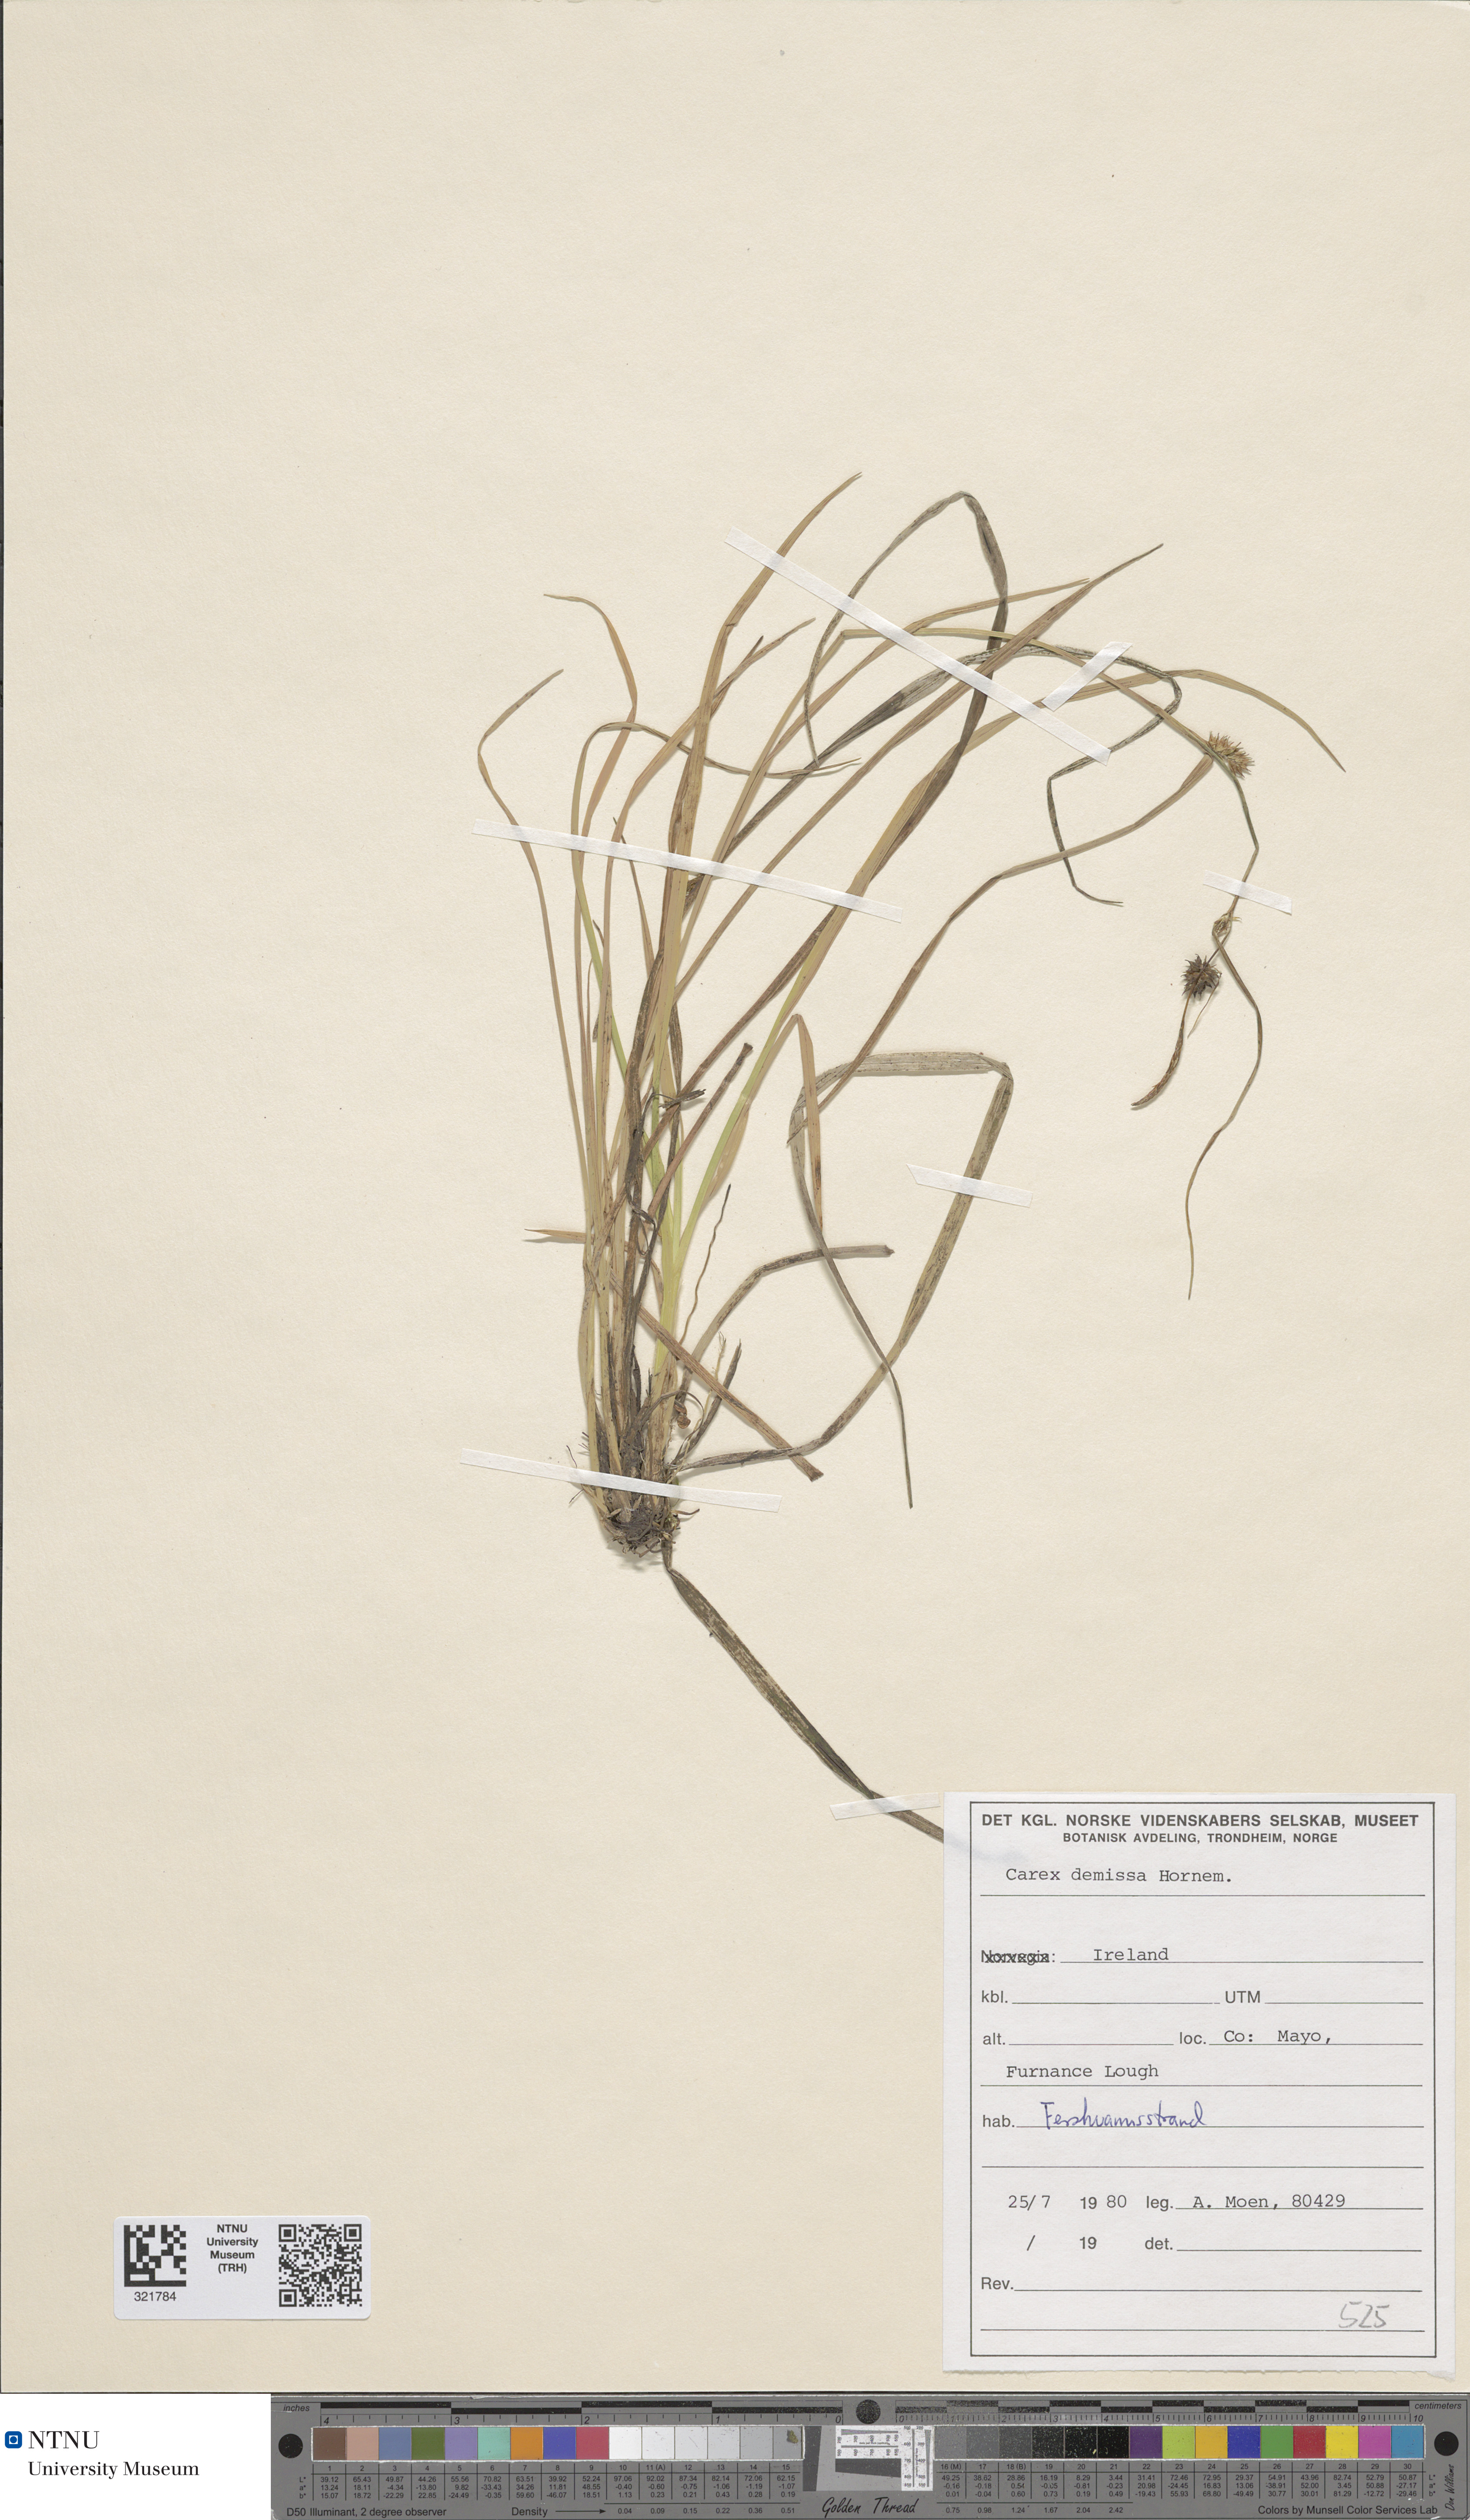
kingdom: Plantae
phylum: Tracheophyta
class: Liliopsida
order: Poales
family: Cyperaceae
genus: Carex
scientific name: Carex demissa
